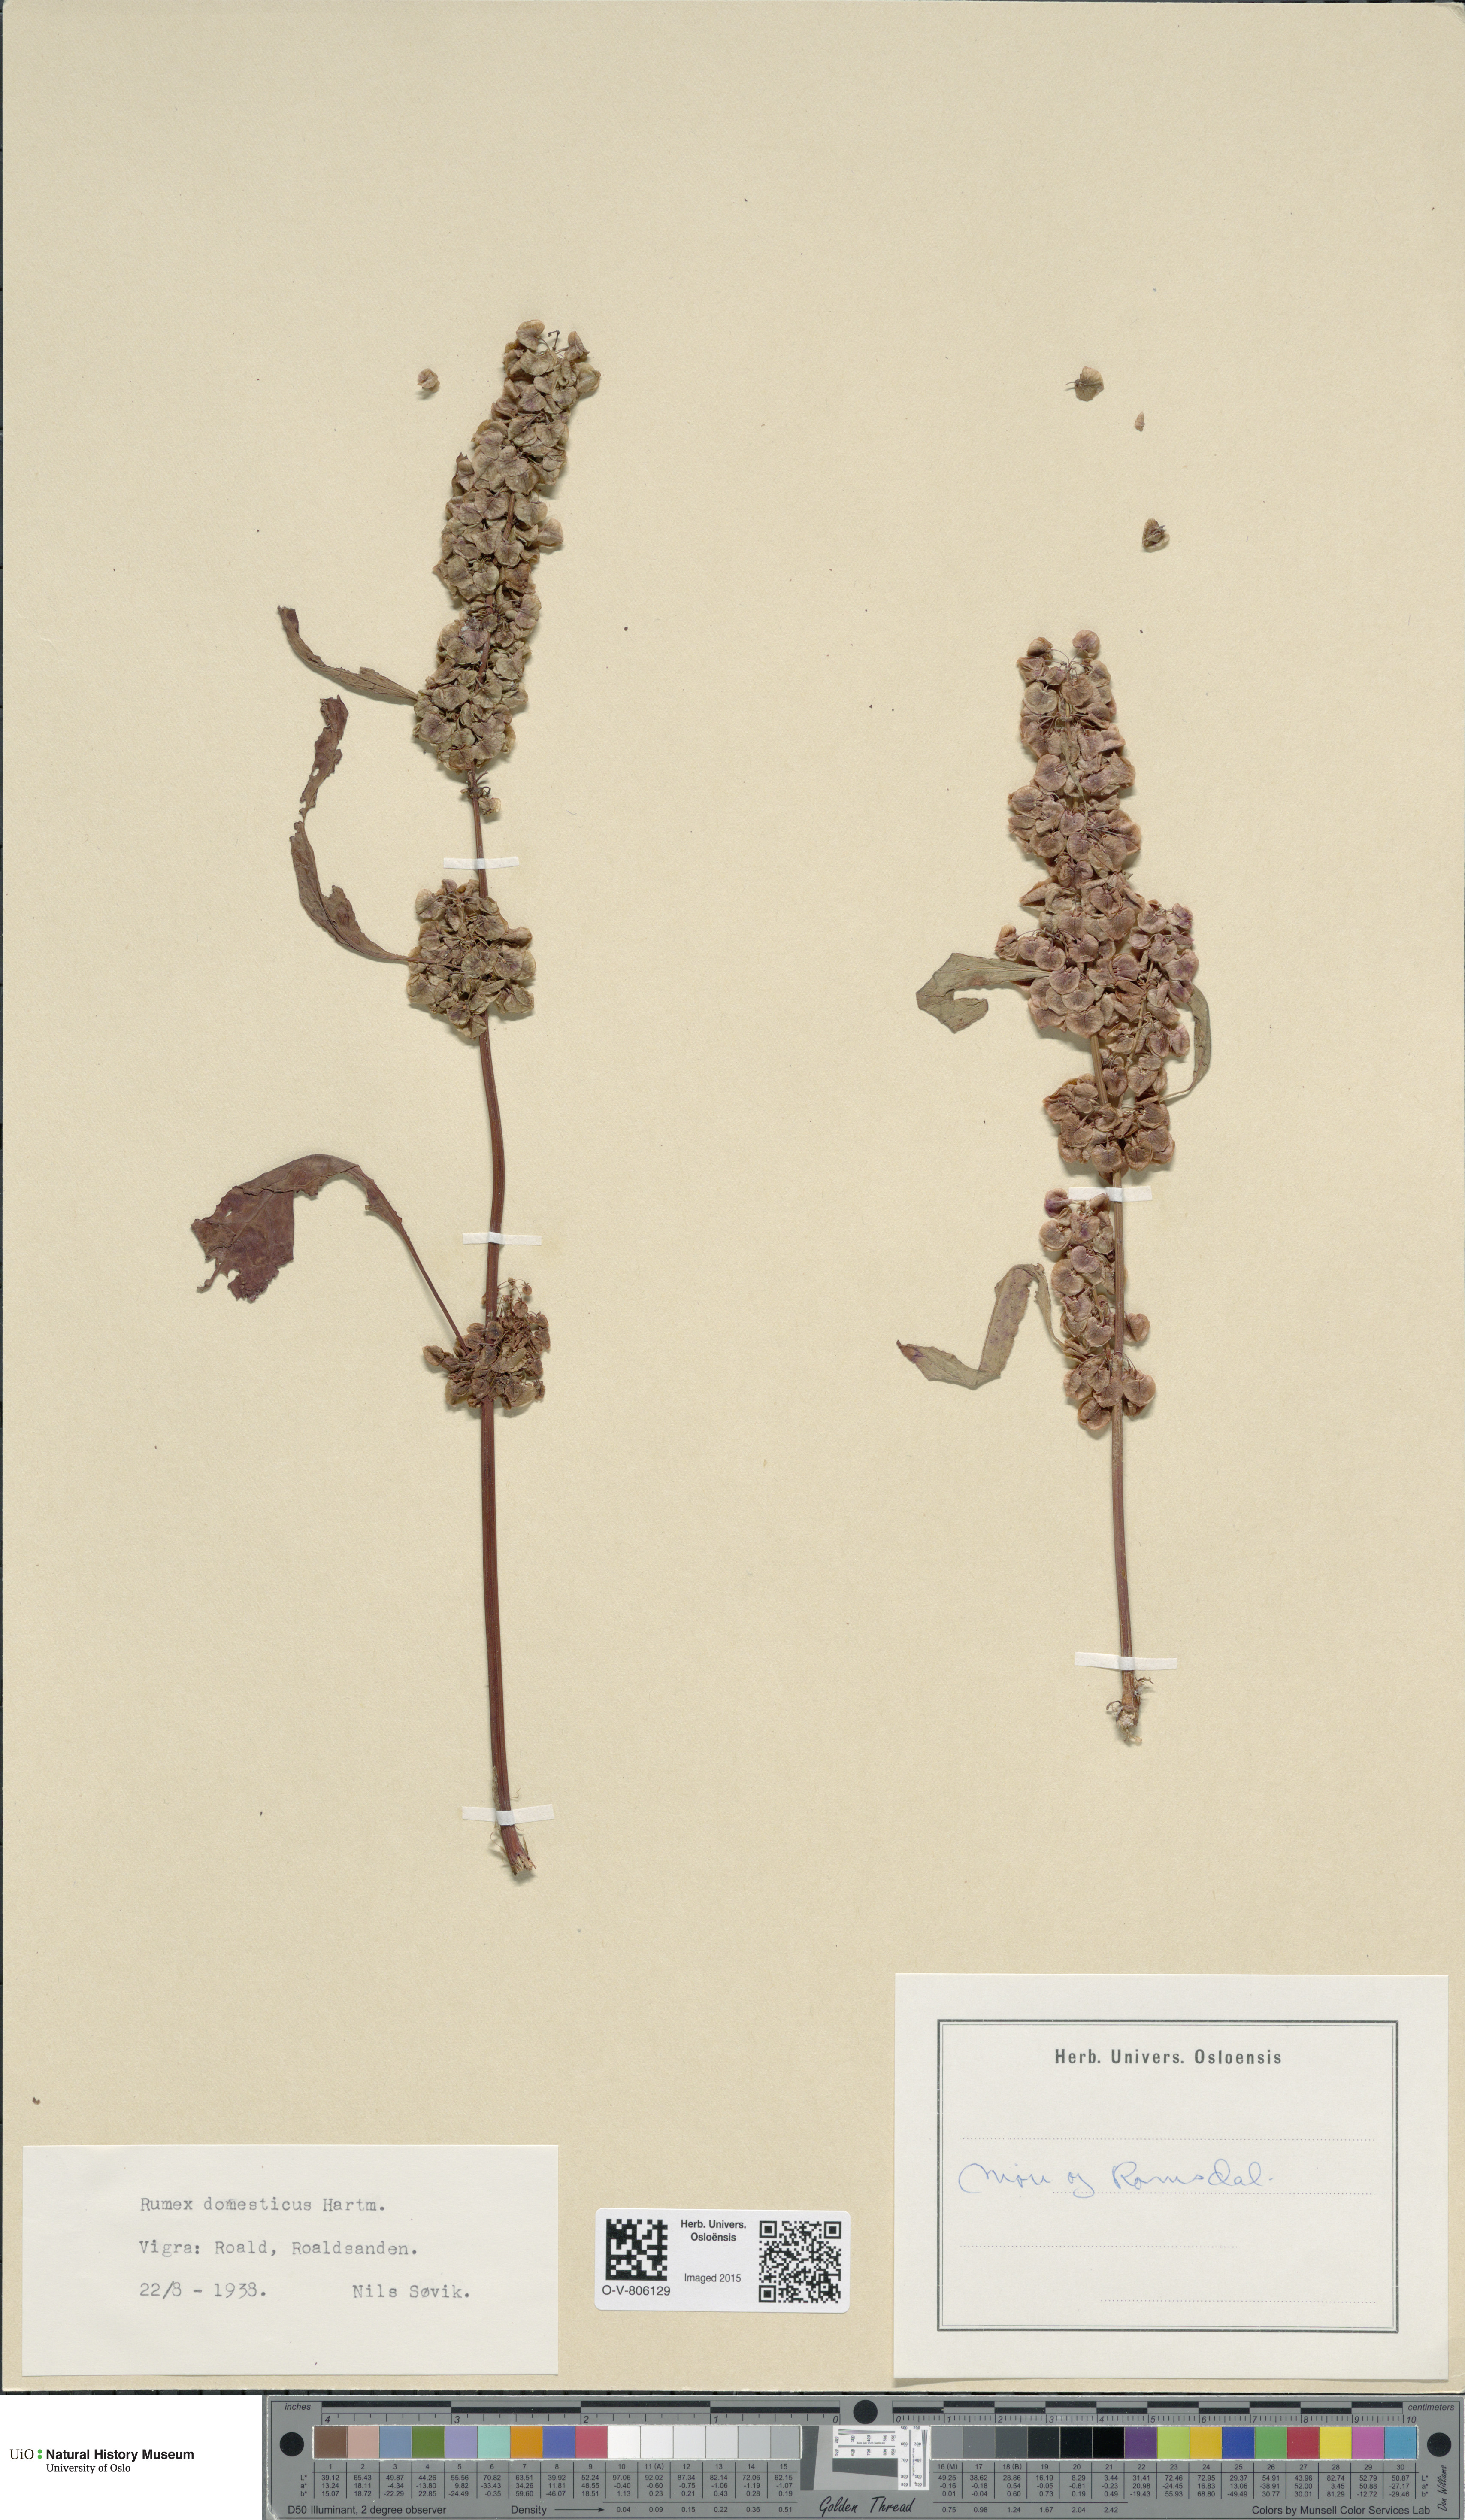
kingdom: Plantae
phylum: Tracheophyta
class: Magnoliopsida
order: Caryophyllales
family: Polygonaceae
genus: Rumex
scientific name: Rumex longifolius
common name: Dooryard dock
